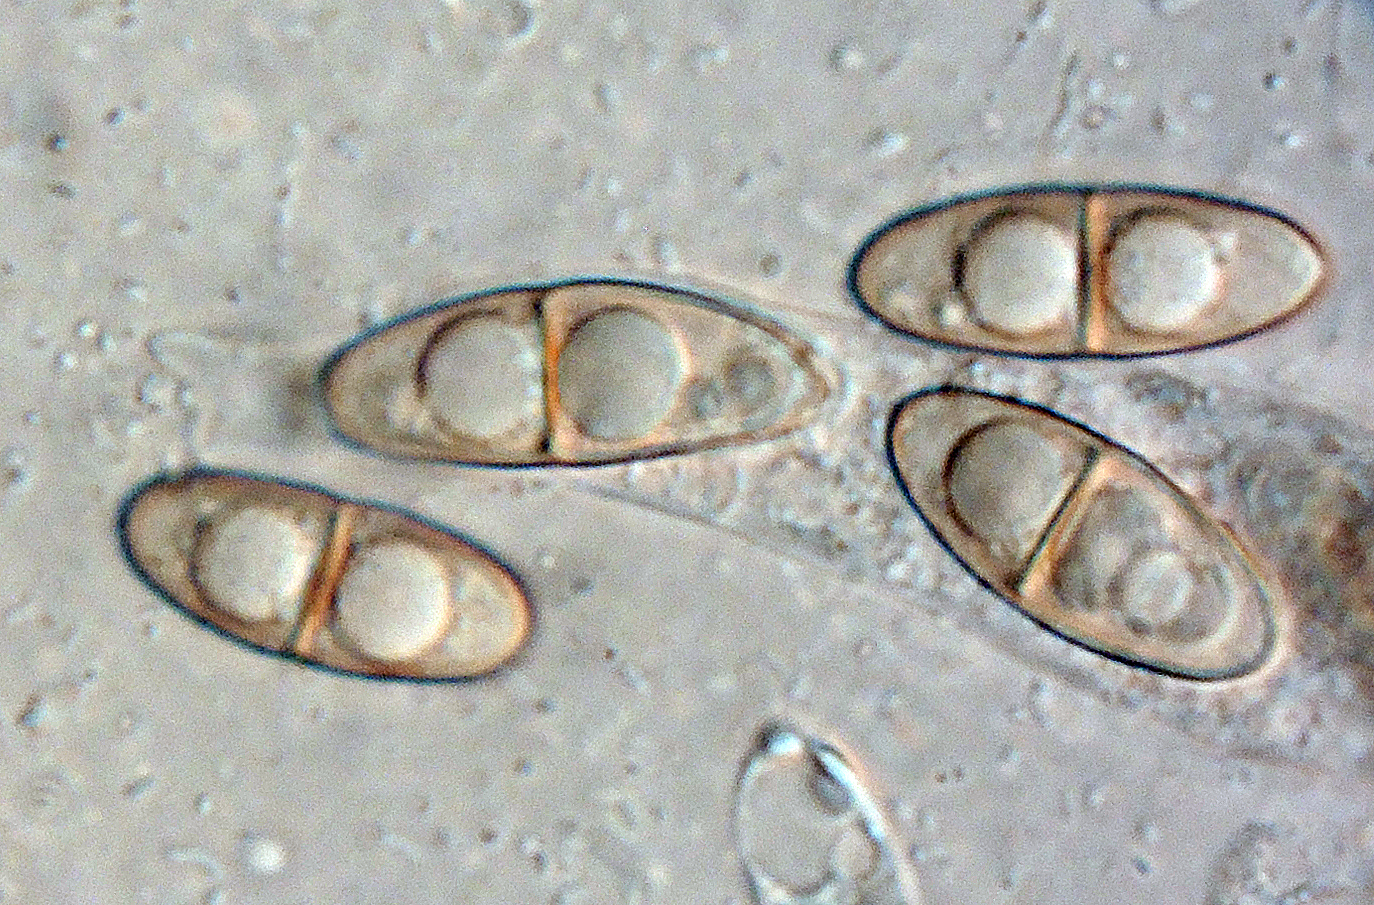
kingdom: Fungi
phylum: Ascomycota
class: Dothideomycetes
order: Dothideales
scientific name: Dothideales
